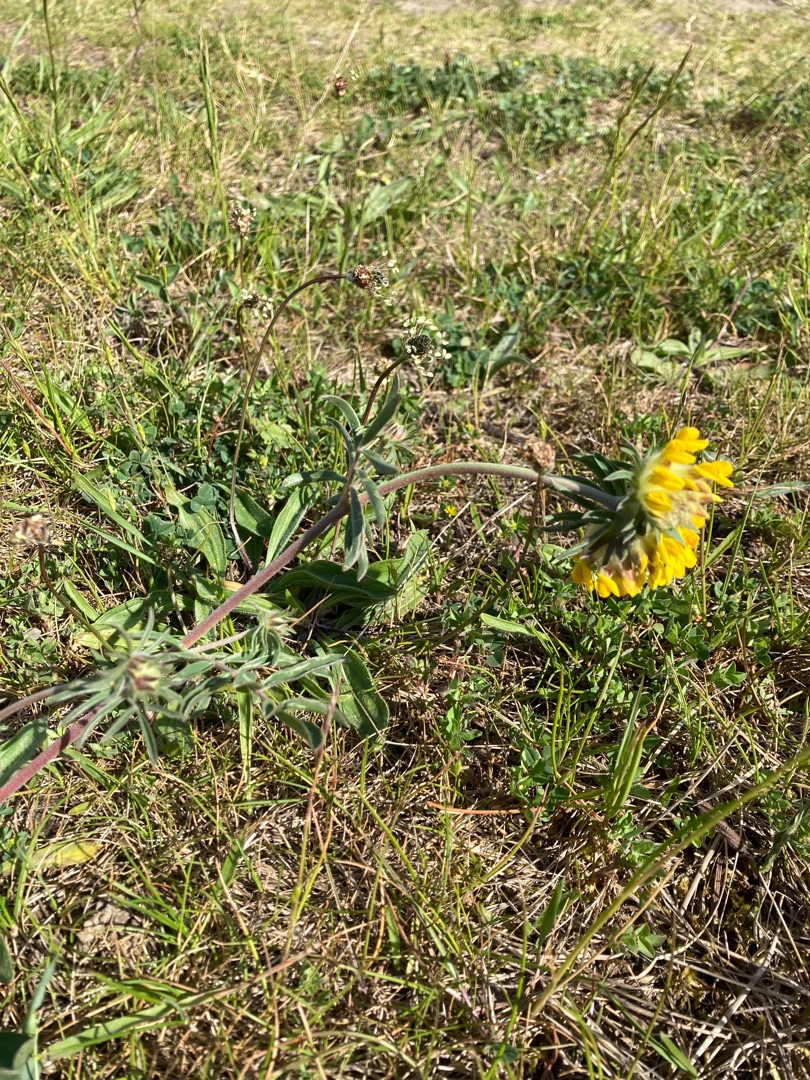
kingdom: Plantae
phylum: Tracheophyta
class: Magnoliopsida
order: Fabales
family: Fabaceae
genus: Anthyllis
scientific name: Anthyllis vulneraria
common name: Rundbælg
